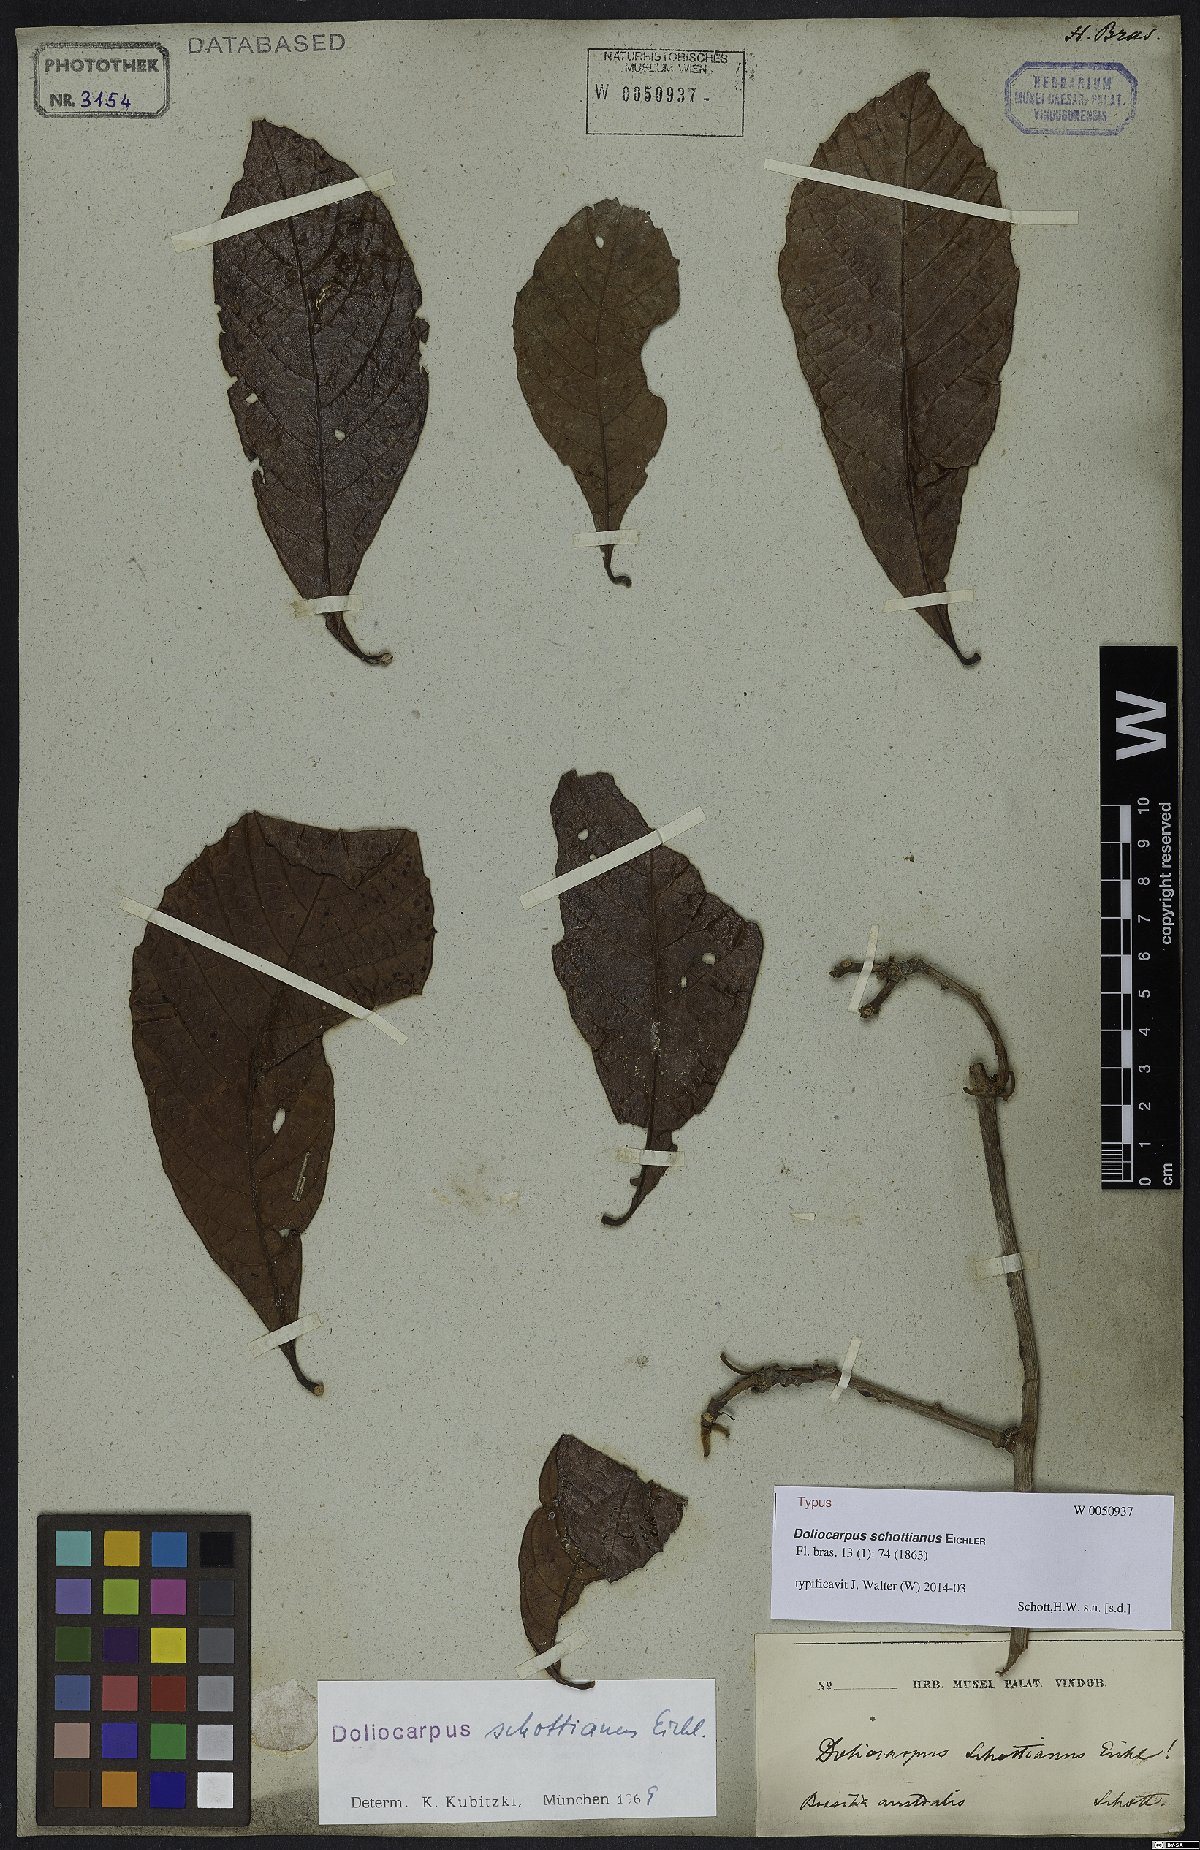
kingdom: Plantae
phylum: Tracheophyta
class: Magnoliopsida
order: Dilleniales
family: Dilleniaceae
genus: Doliocarpus
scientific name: Doliocarpus schottianus
